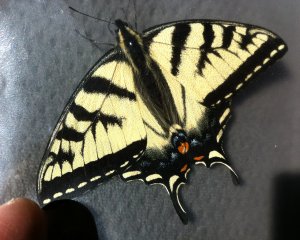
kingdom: Animalia
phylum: Arthropoda
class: Insecta
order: Lepidoptera
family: Papilionidae
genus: Pterourus
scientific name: Pterourus canadensis
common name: Canadian Tiger Swallowtail
